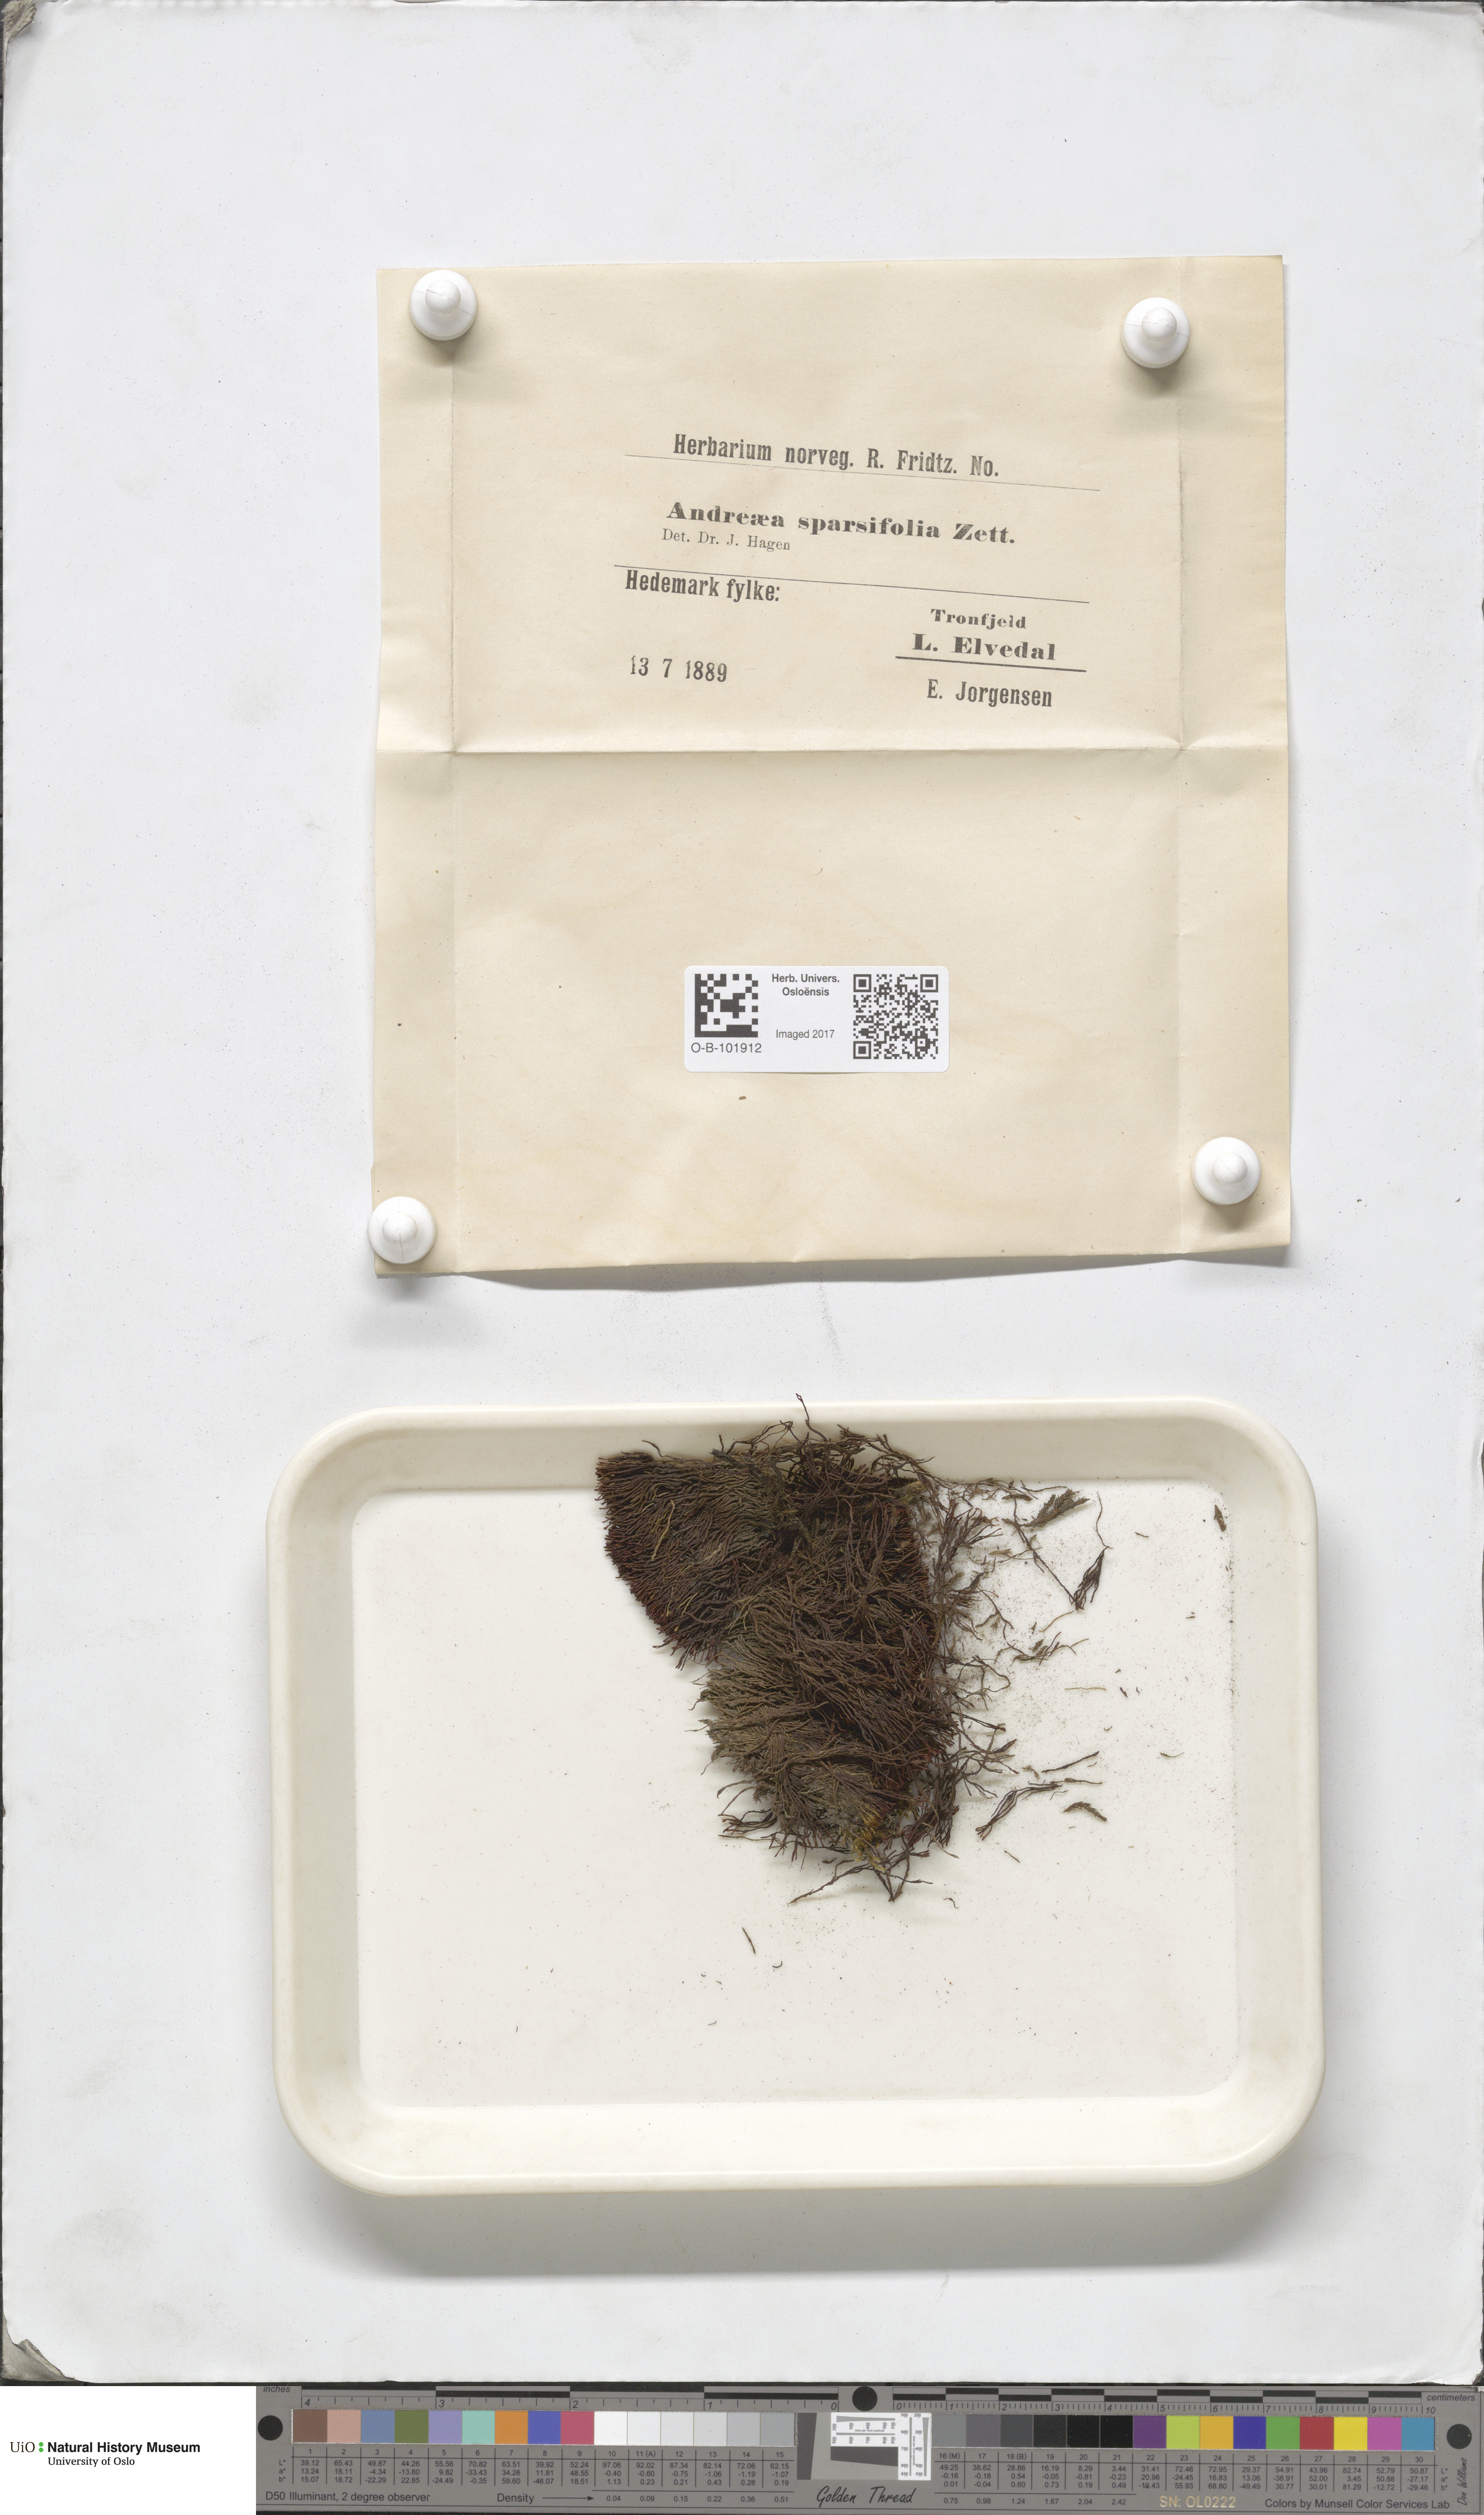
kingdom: Plantae
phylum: Bryophyta
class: Andreaeopsida
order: Andreaeales
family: Andreaeaceae
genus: Andreaea
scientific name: Andreaea rupestris
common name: Black rock moss
